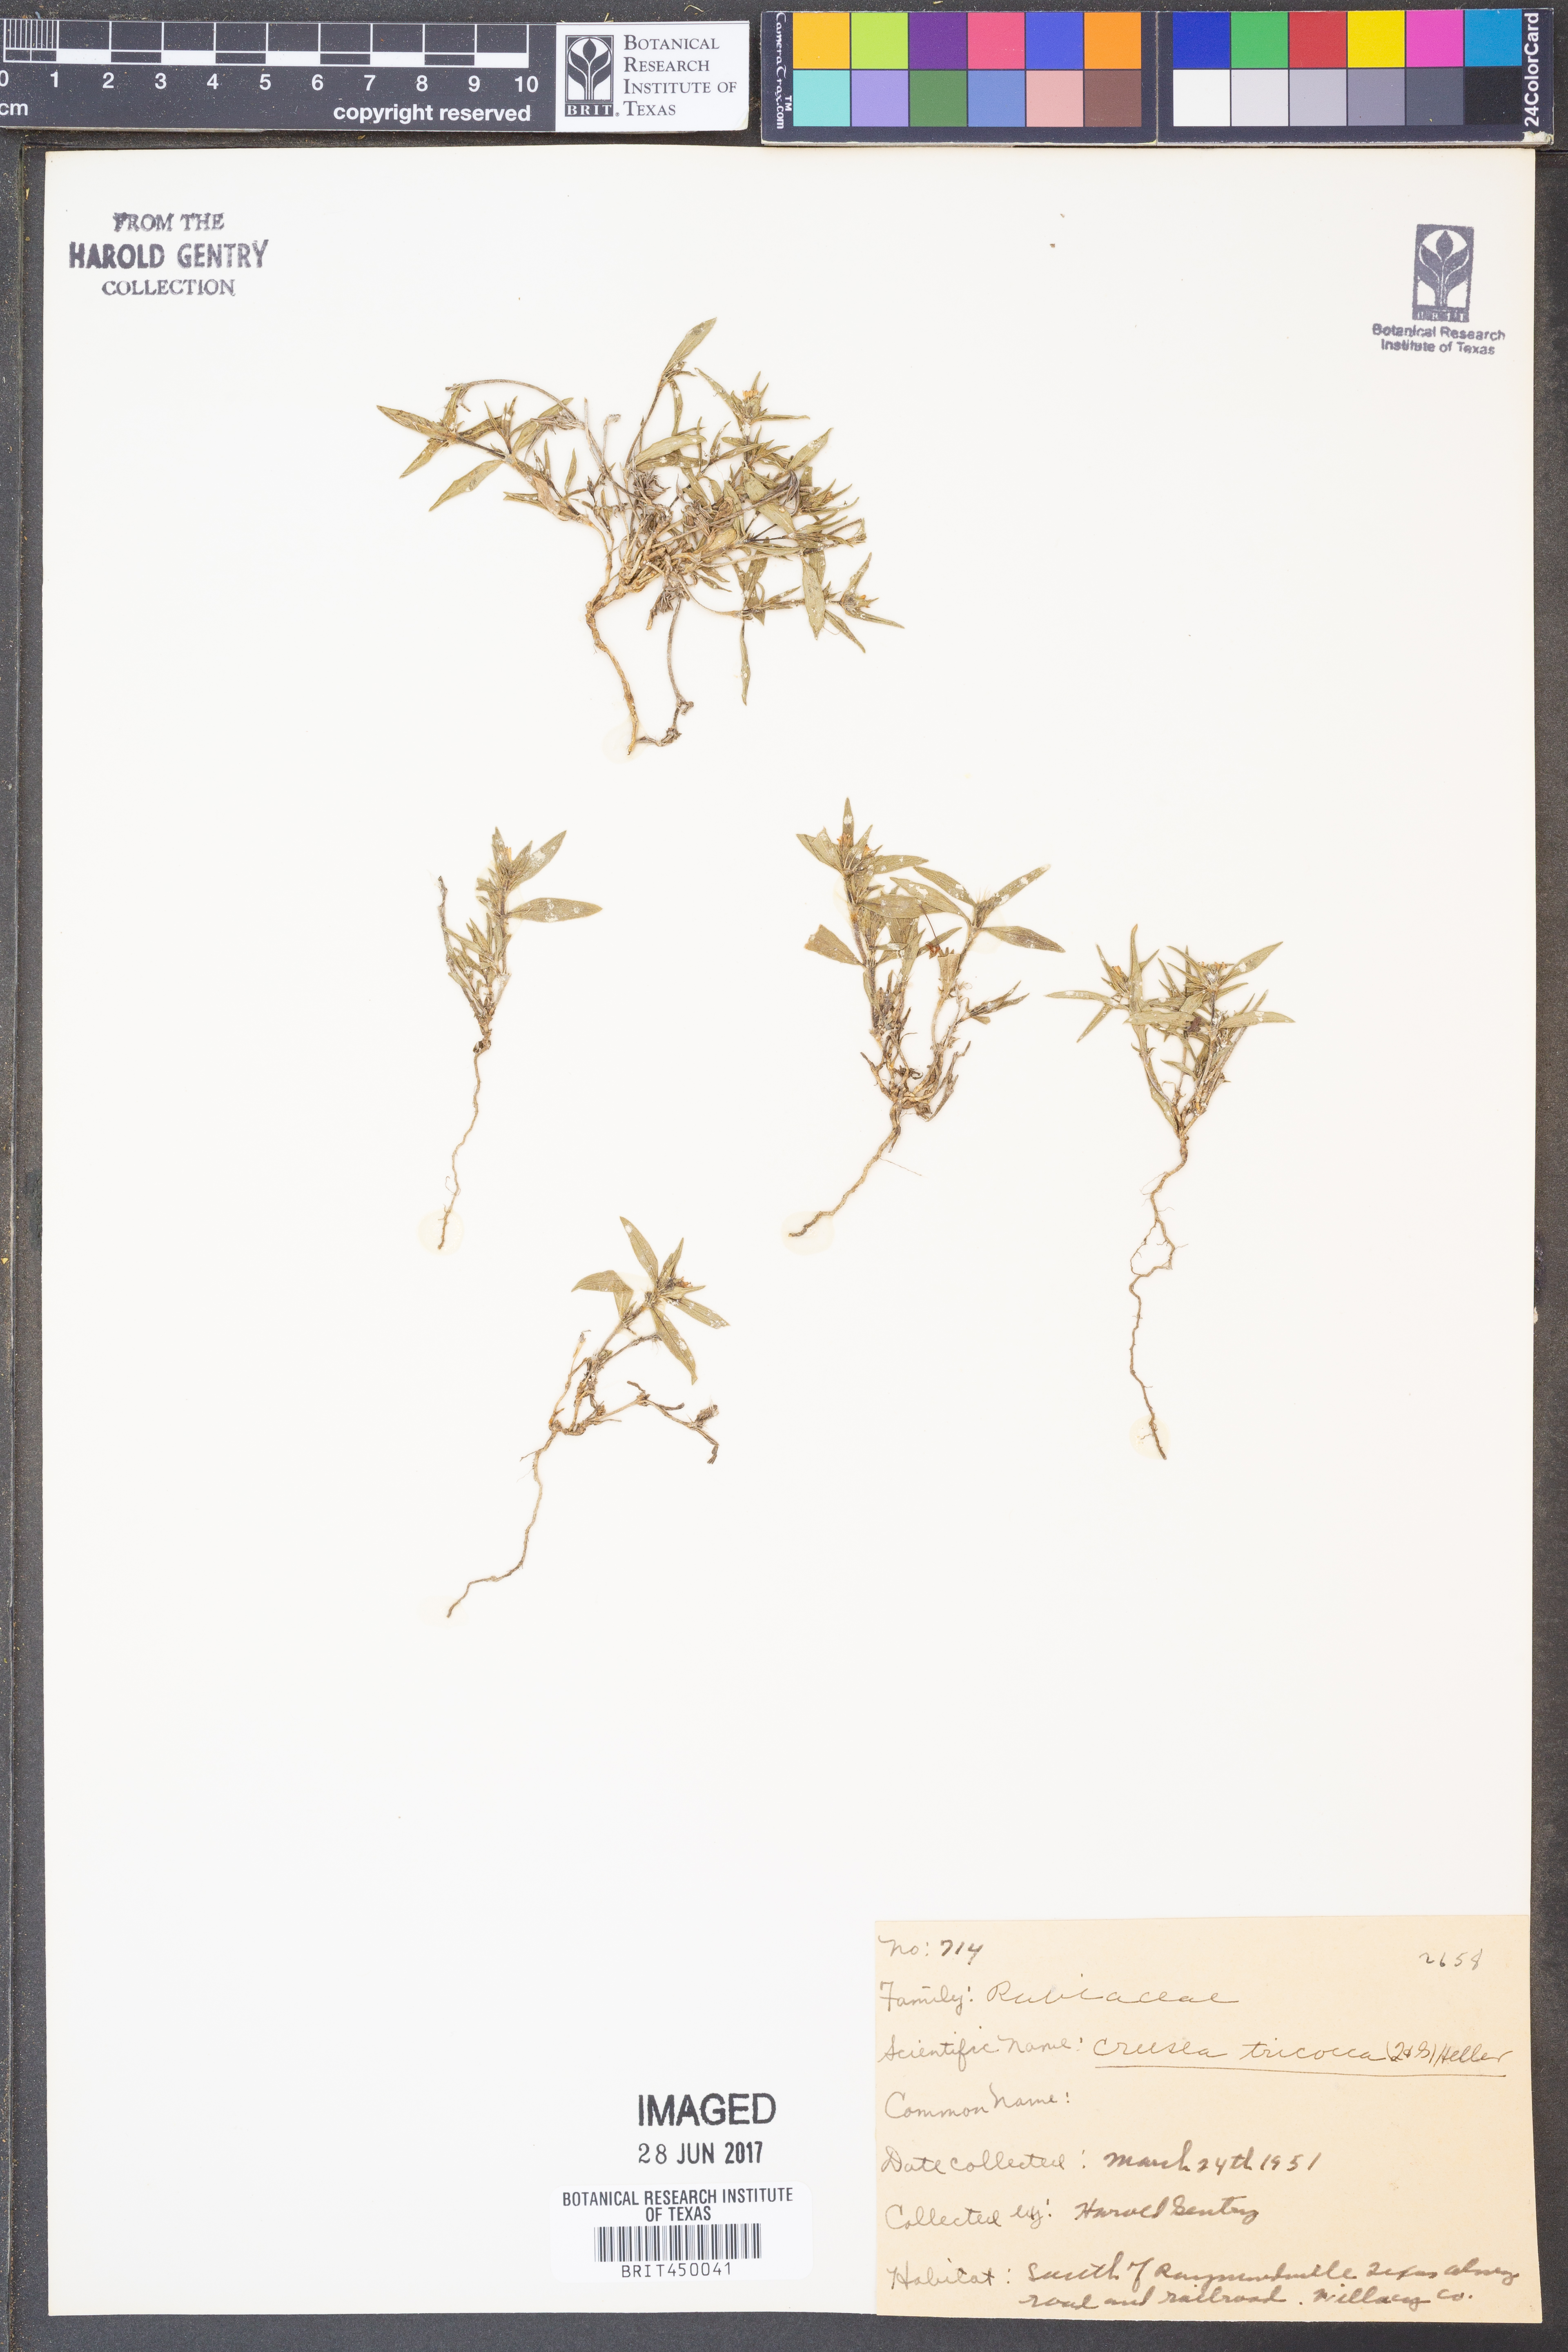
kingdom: Plantae
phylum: Tracheophyta
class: Magnoliopsida
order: Gentianales
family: Rubiaceae
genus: Richardia
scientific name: Richardia tricocca
